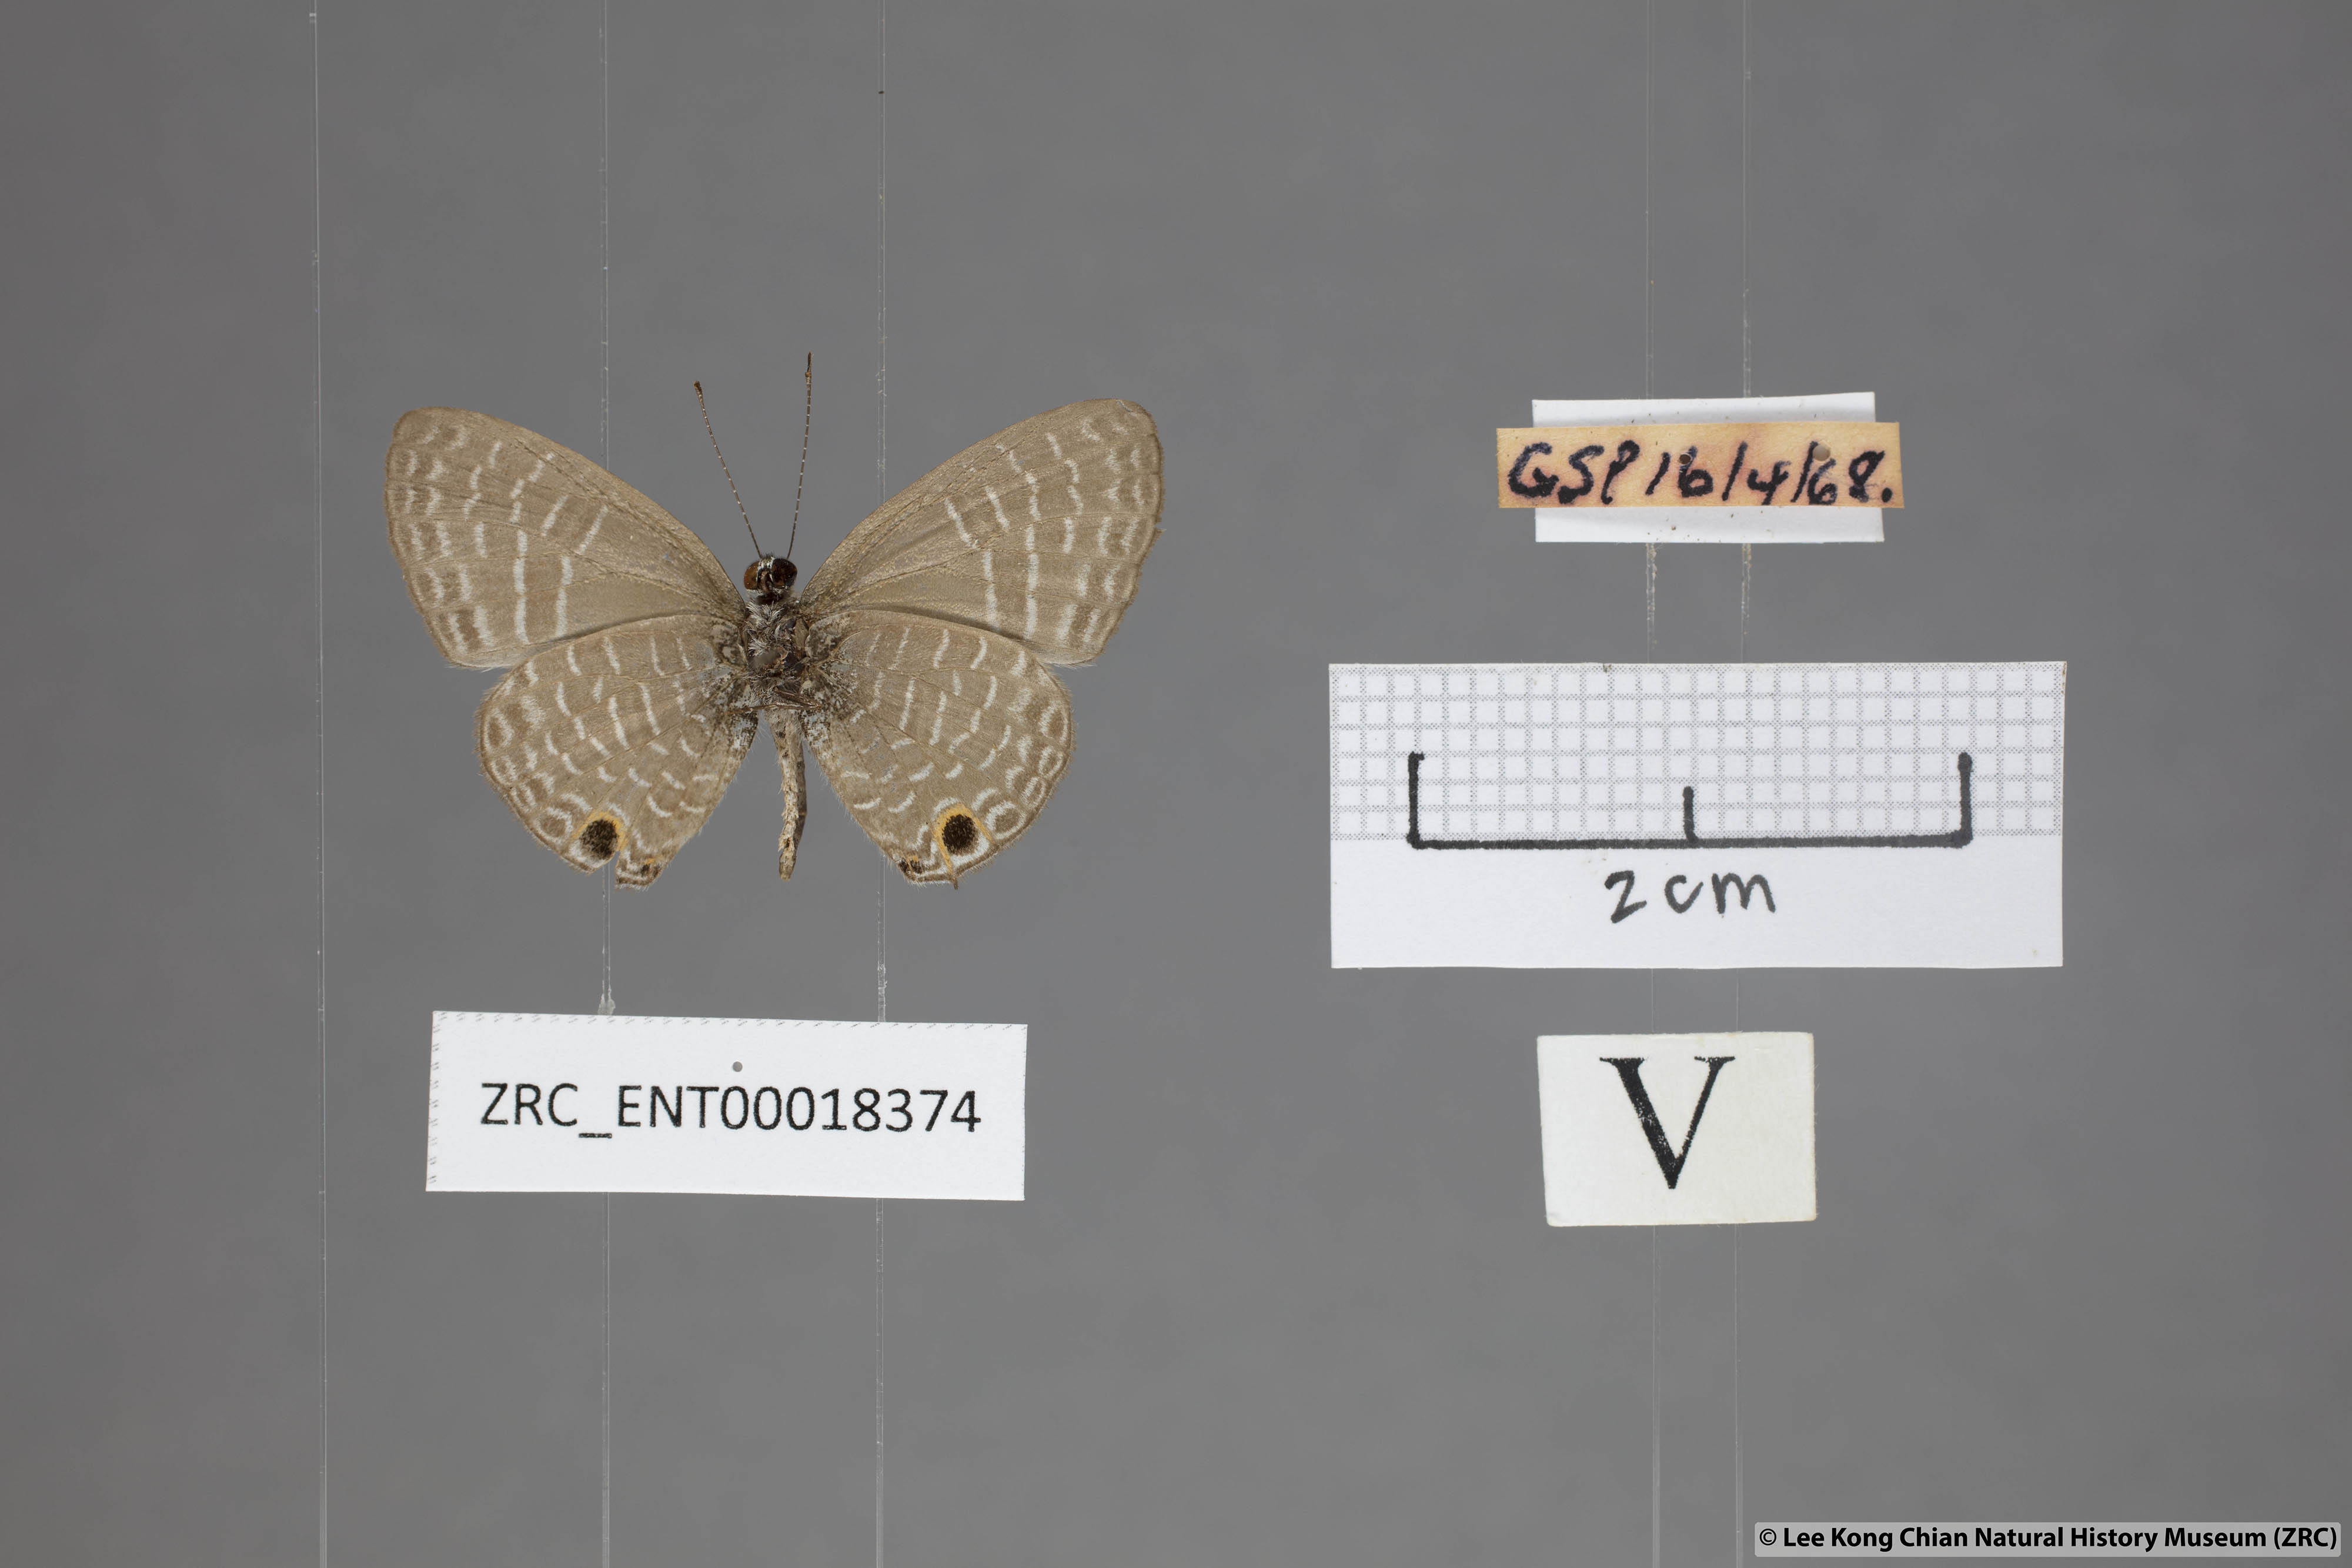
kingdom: Animalia
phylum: Arthropoda
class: Insecta
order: Lepidoptera
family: Lycaenidae
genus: Nacaduba
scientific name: Nacaduba kurava
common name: Transparent 6-line blue
